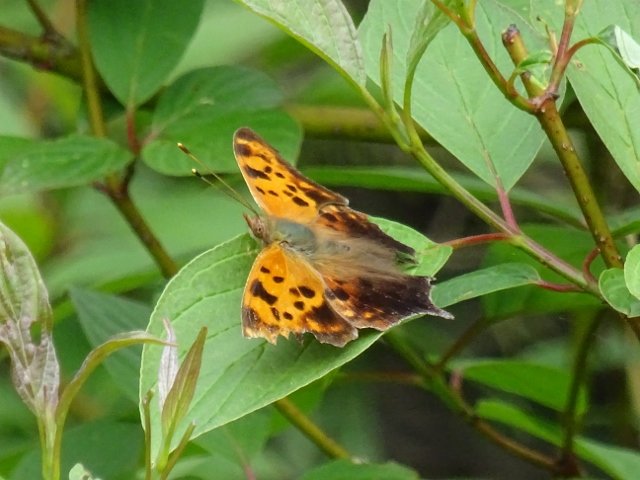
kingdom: Animalia
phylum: Arthropoda
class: Insecta
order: Lepidoptera
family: Nymphalidae
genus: Polygonia
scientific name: Polygonia interrogationis
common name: Question Mark
